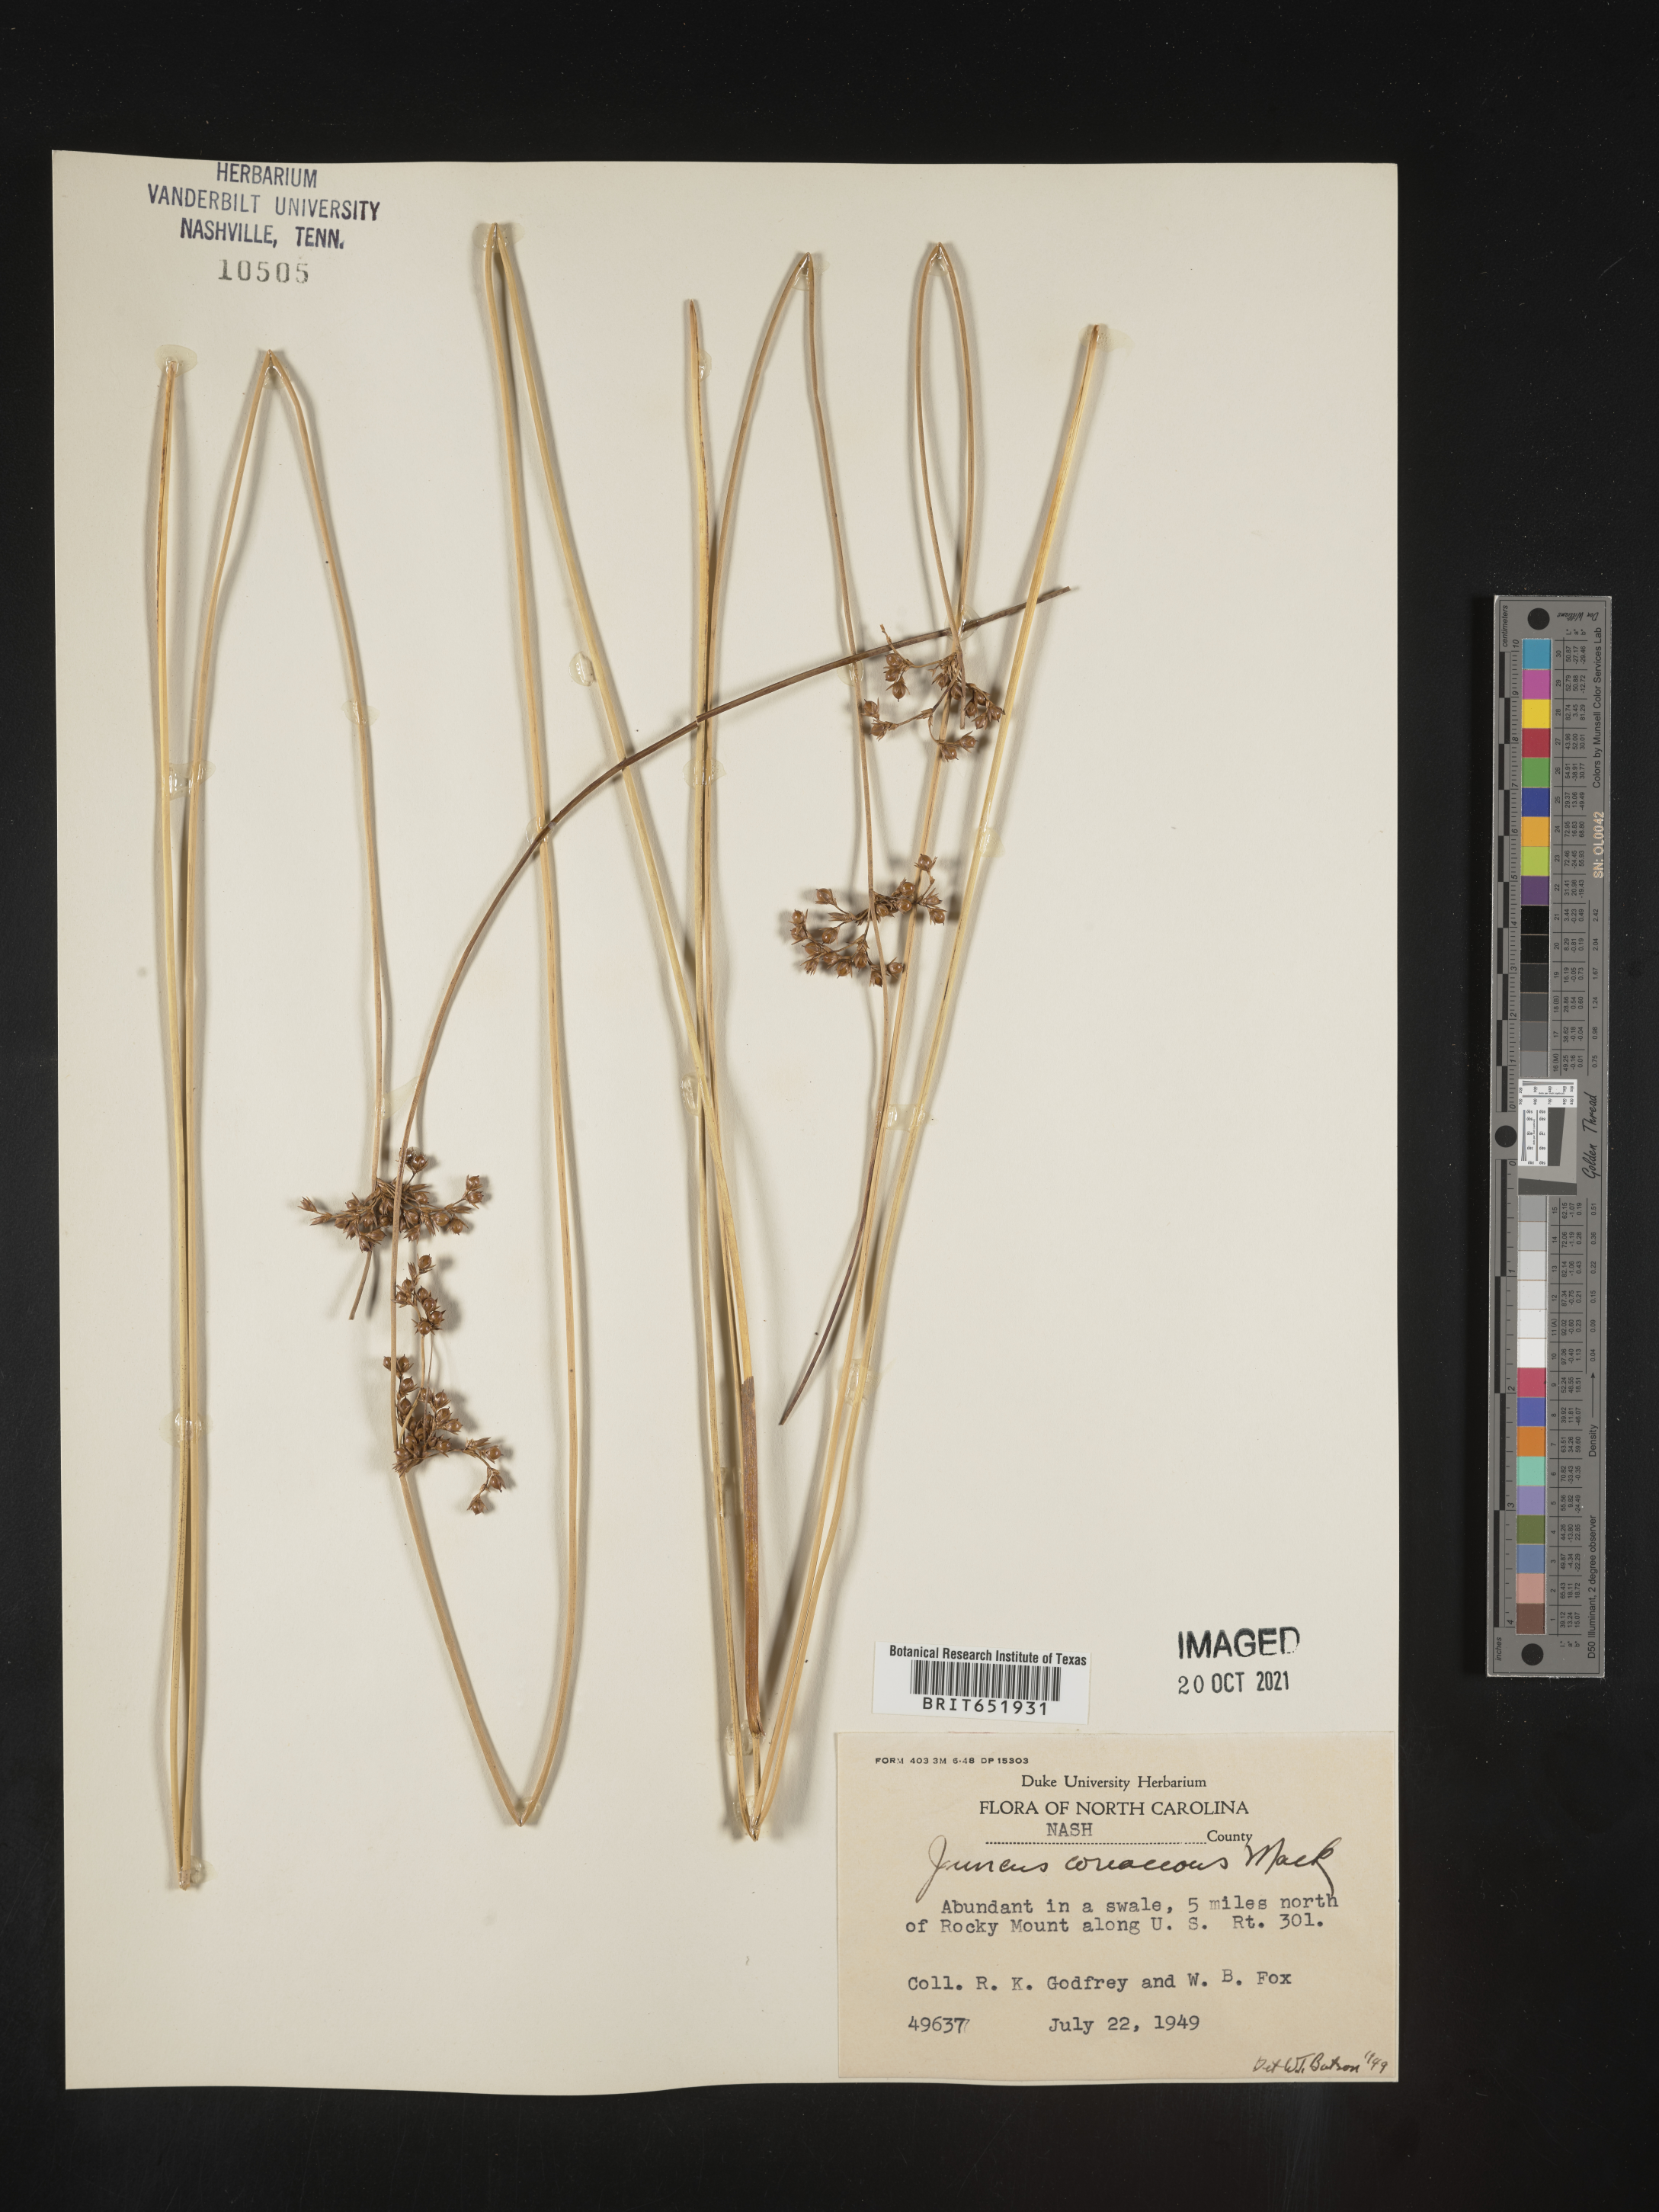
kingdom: Plantae
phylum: Tracheophyta
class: Liliopsida
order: Poales
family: Juncaceae
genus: Juncus
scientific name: Juncus coriaceus
